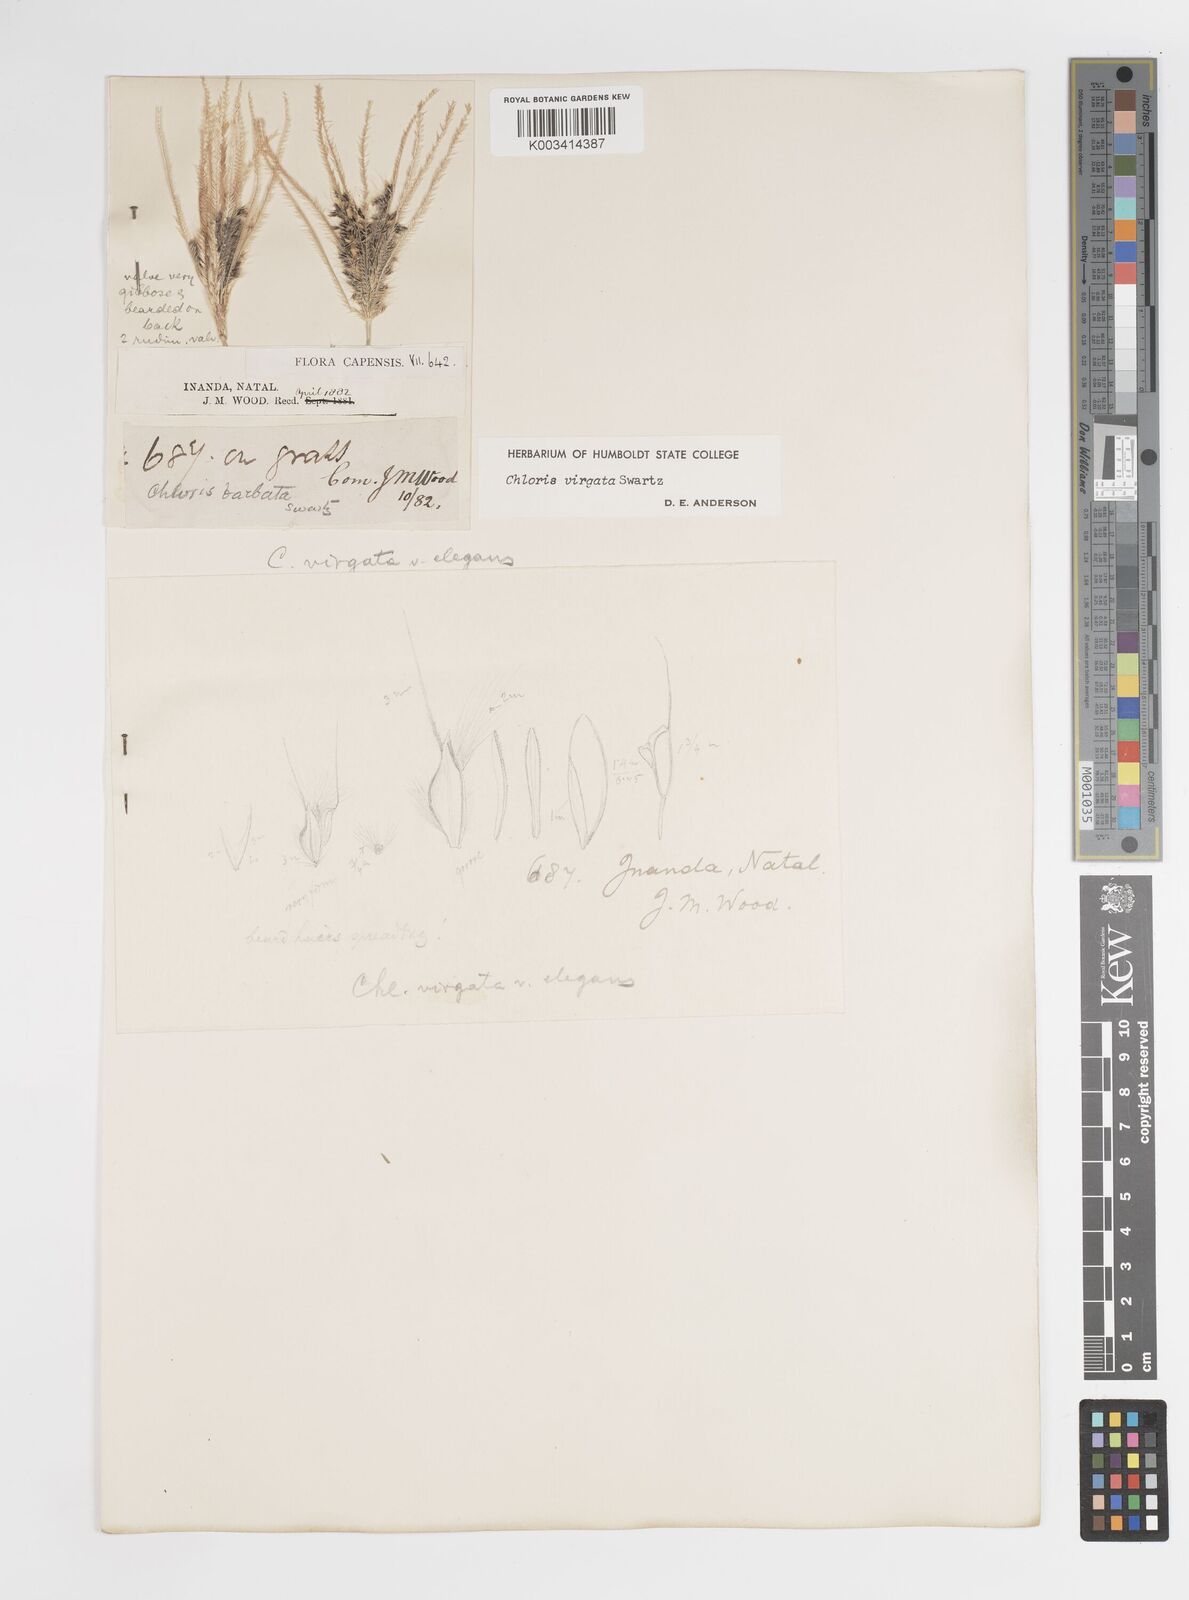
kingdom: Plantae
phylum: Tracheophyta
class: Liliopsida
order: Poales
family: Poaceae
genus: Chloris
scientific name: Chloris virgata
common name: Feathery rhodes-grass
